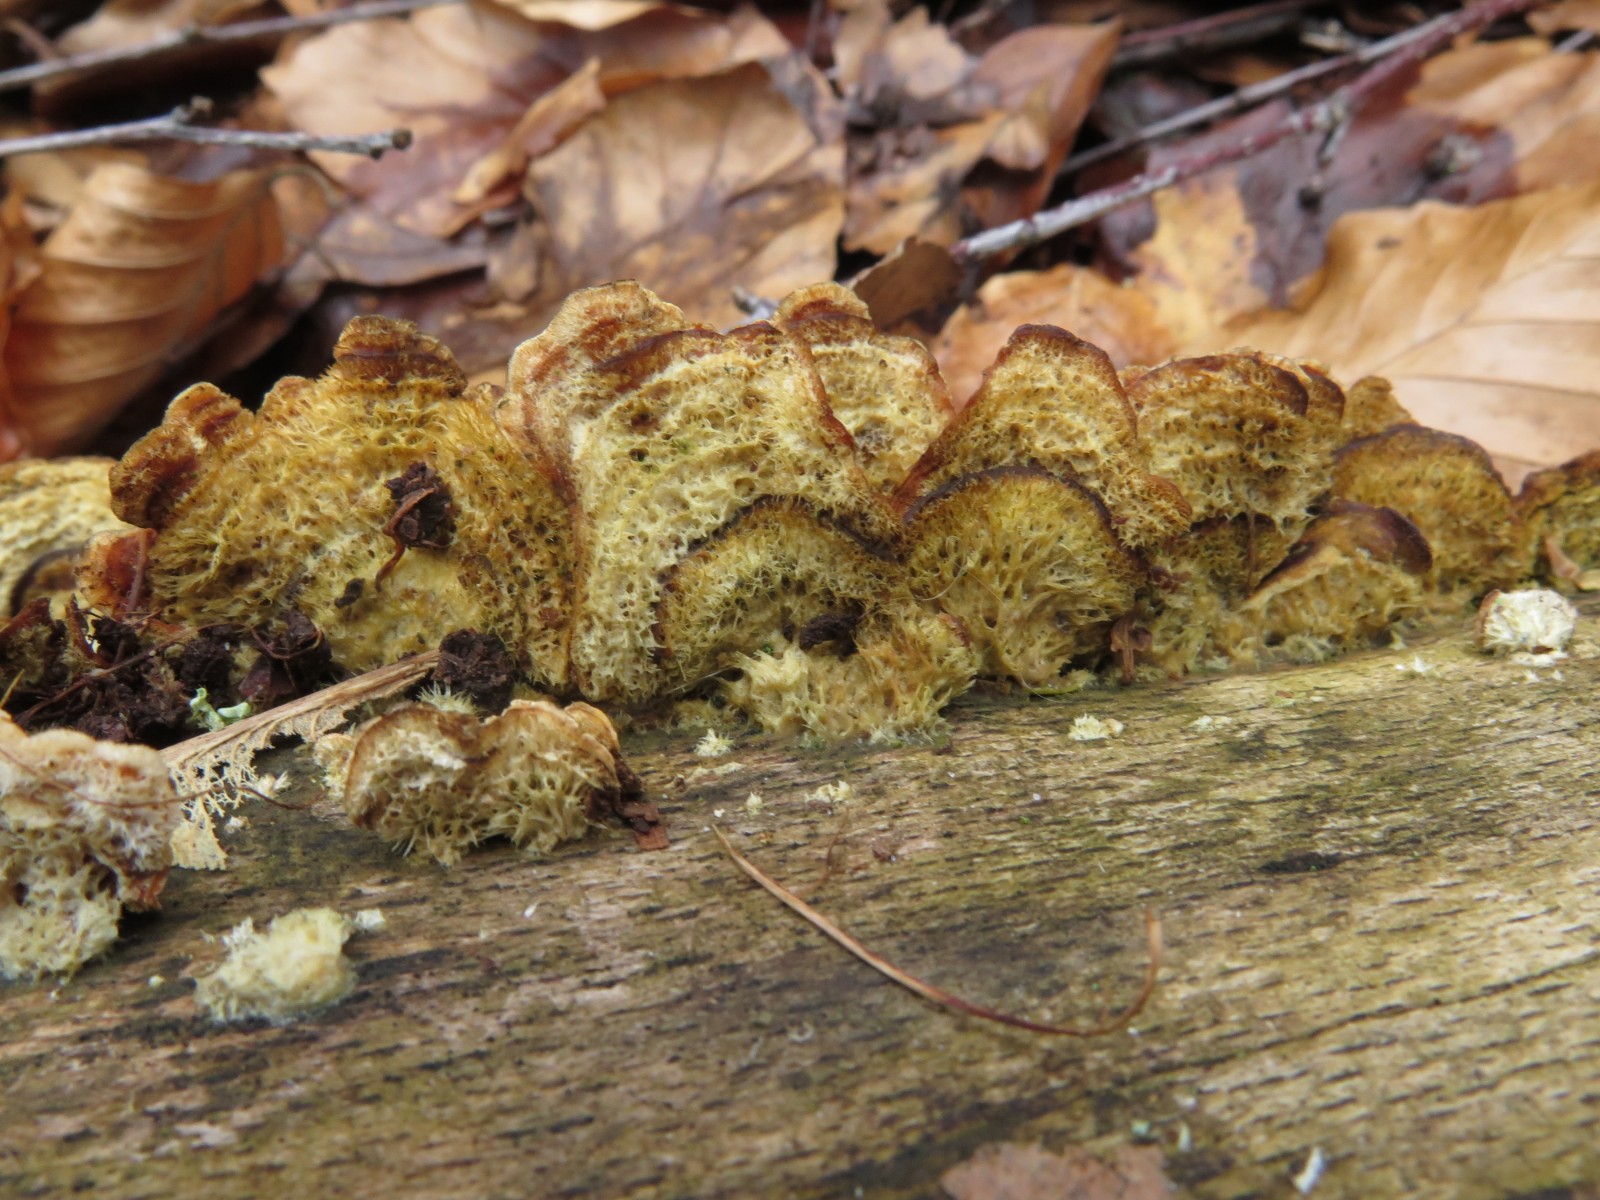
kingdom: Fungi
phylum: Basidiomycota
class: Agaricomycetes
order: Russulales
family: Stereaceae
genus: Stereum
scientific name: Stereum hirsutum
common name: håret lædersvamp
